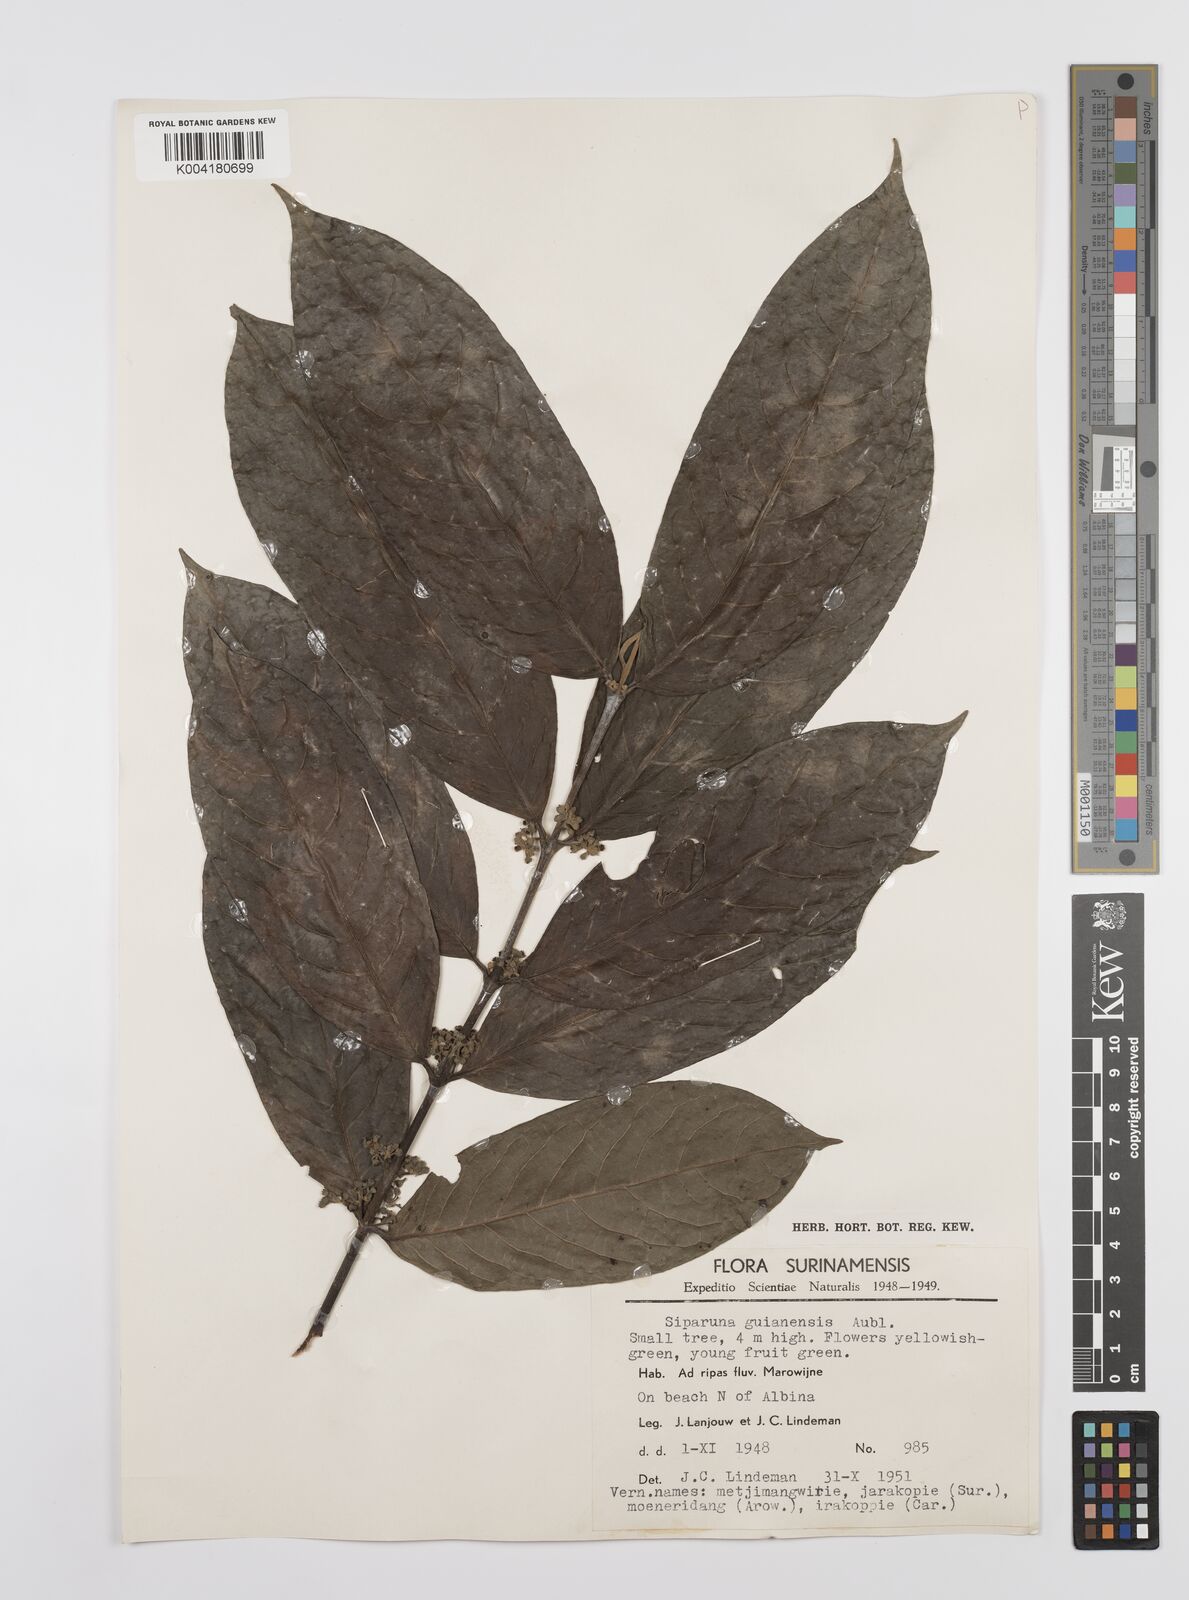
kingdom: Plantae
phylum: Tracheophyta
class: Magnoliopsida
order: Laurales
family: Siparunaceae
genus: Siparuna
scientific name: Siparuna guianensis
